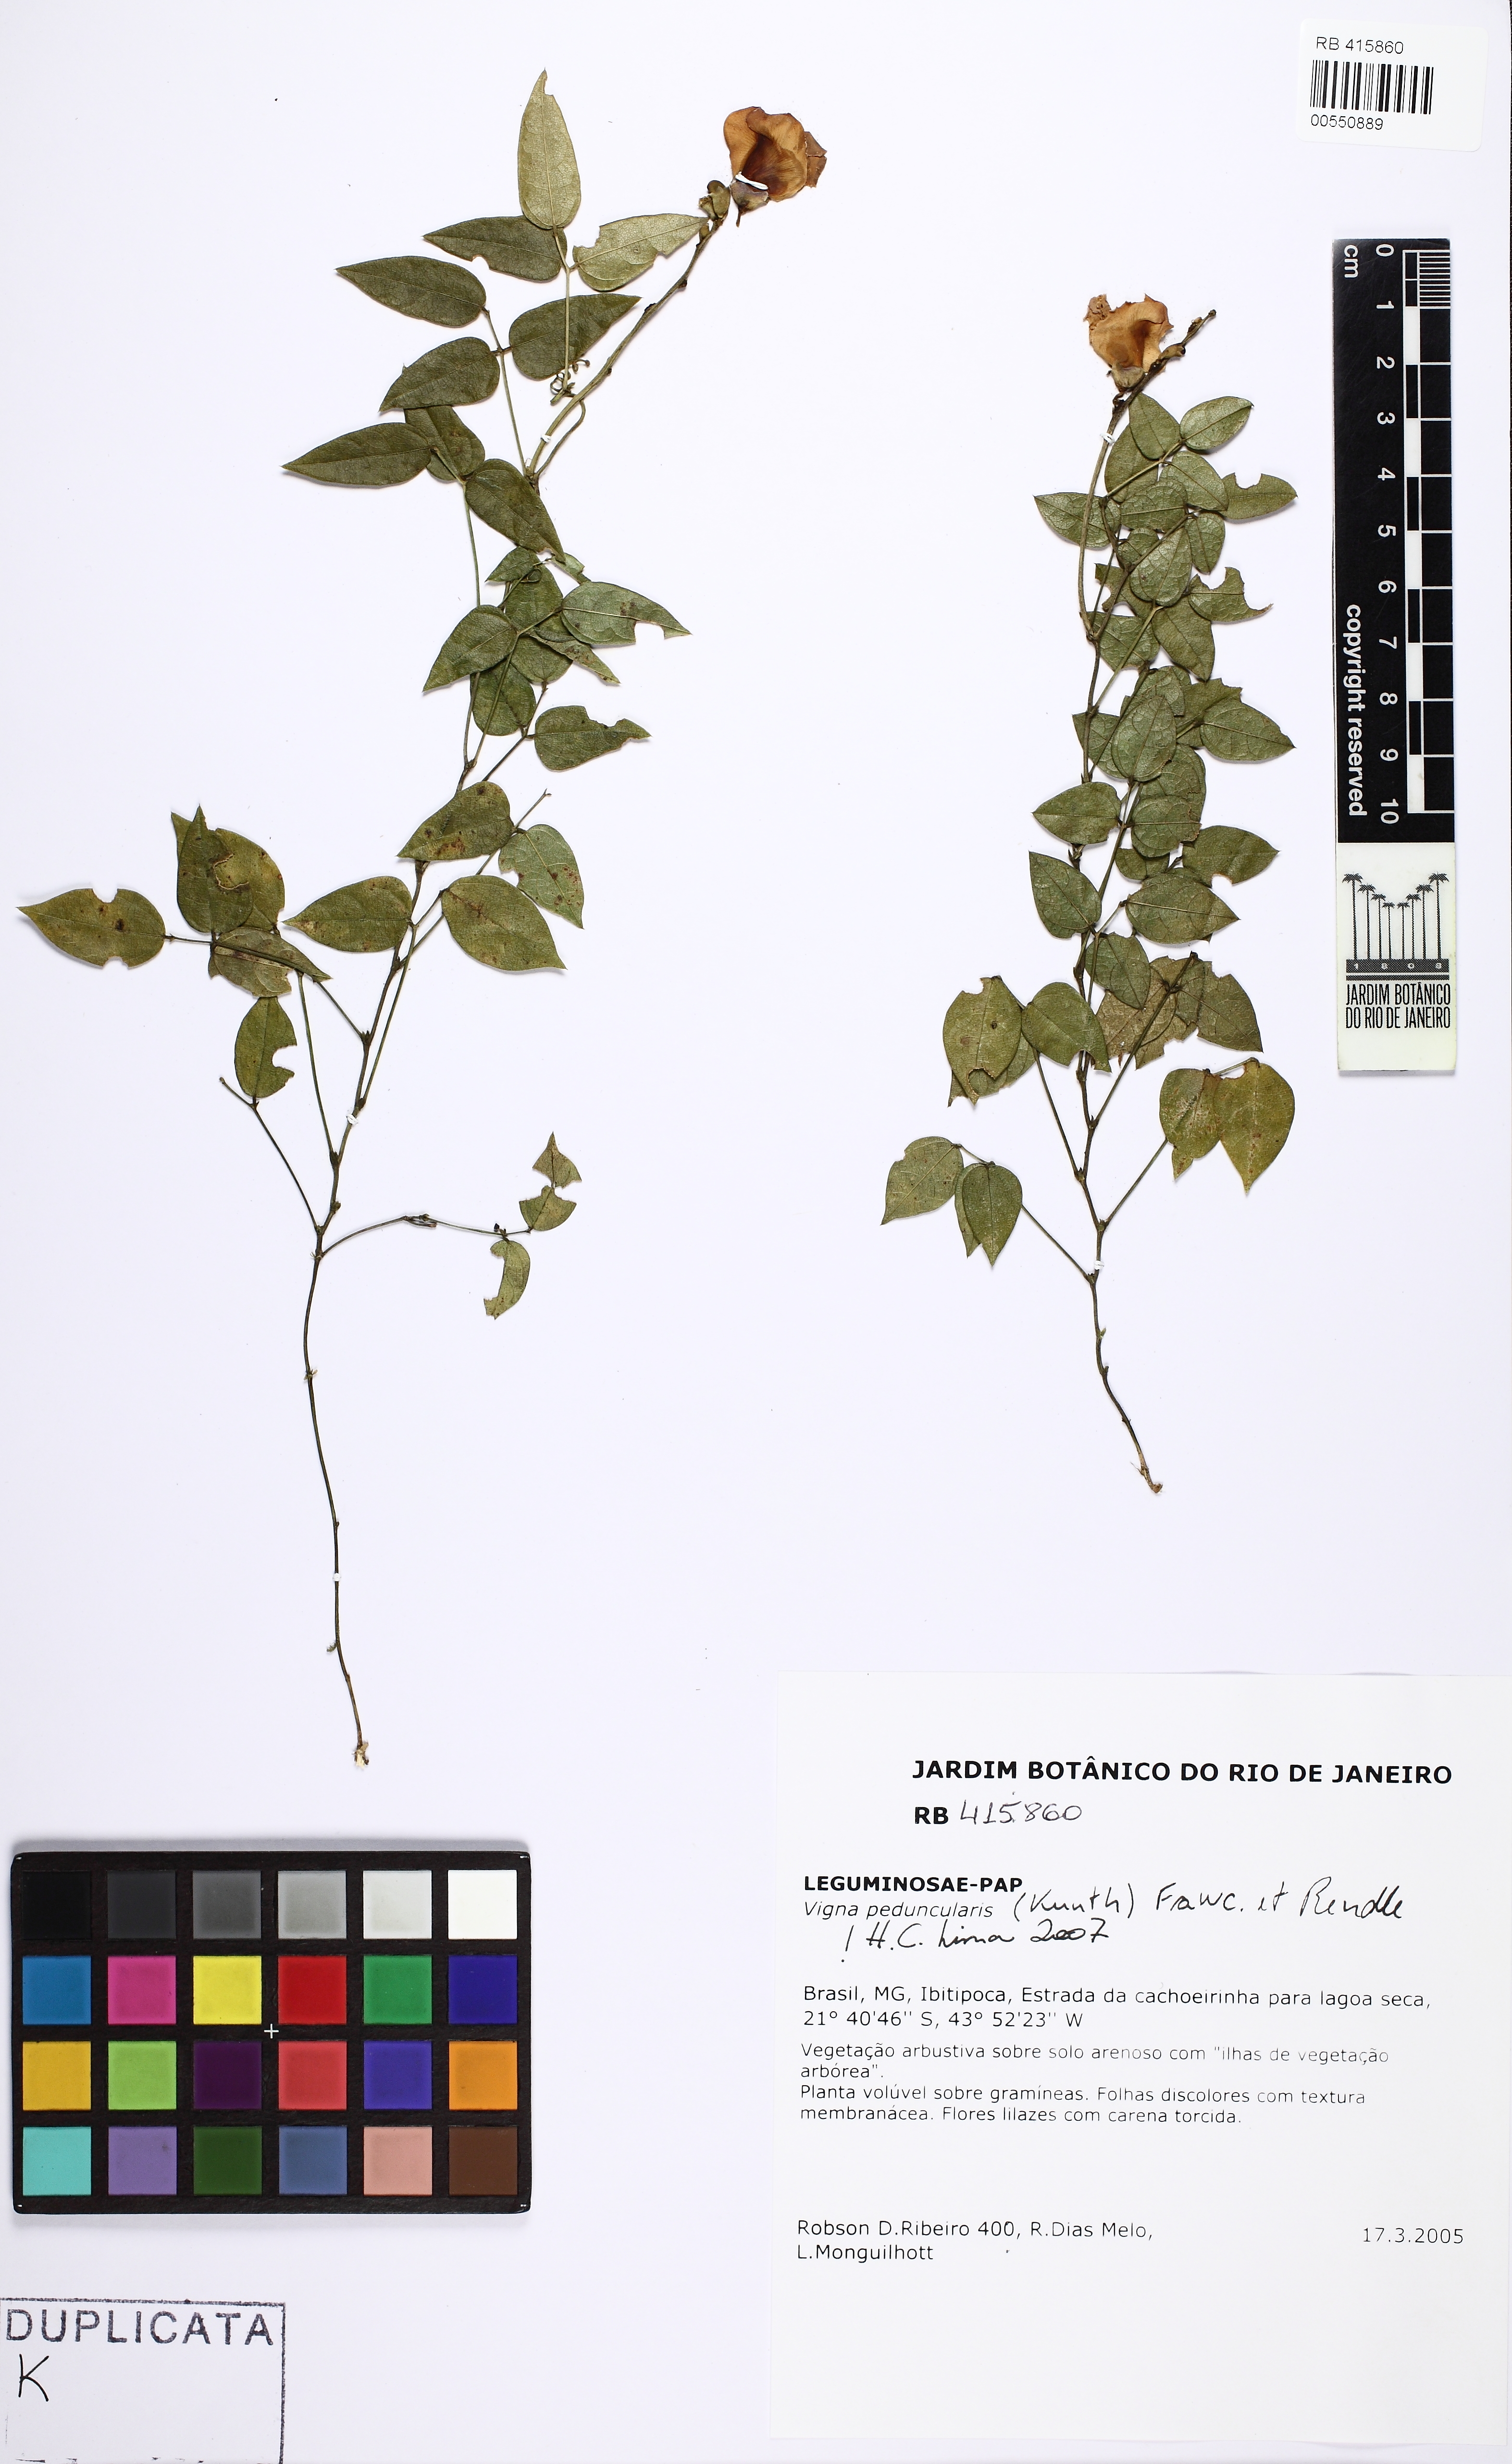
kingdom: Plantae
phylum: Tracheophyta
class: Magnoliopsida
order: Fabales
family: Fabaceae
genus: Ancistrotropis
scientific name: Ancistrotropis
